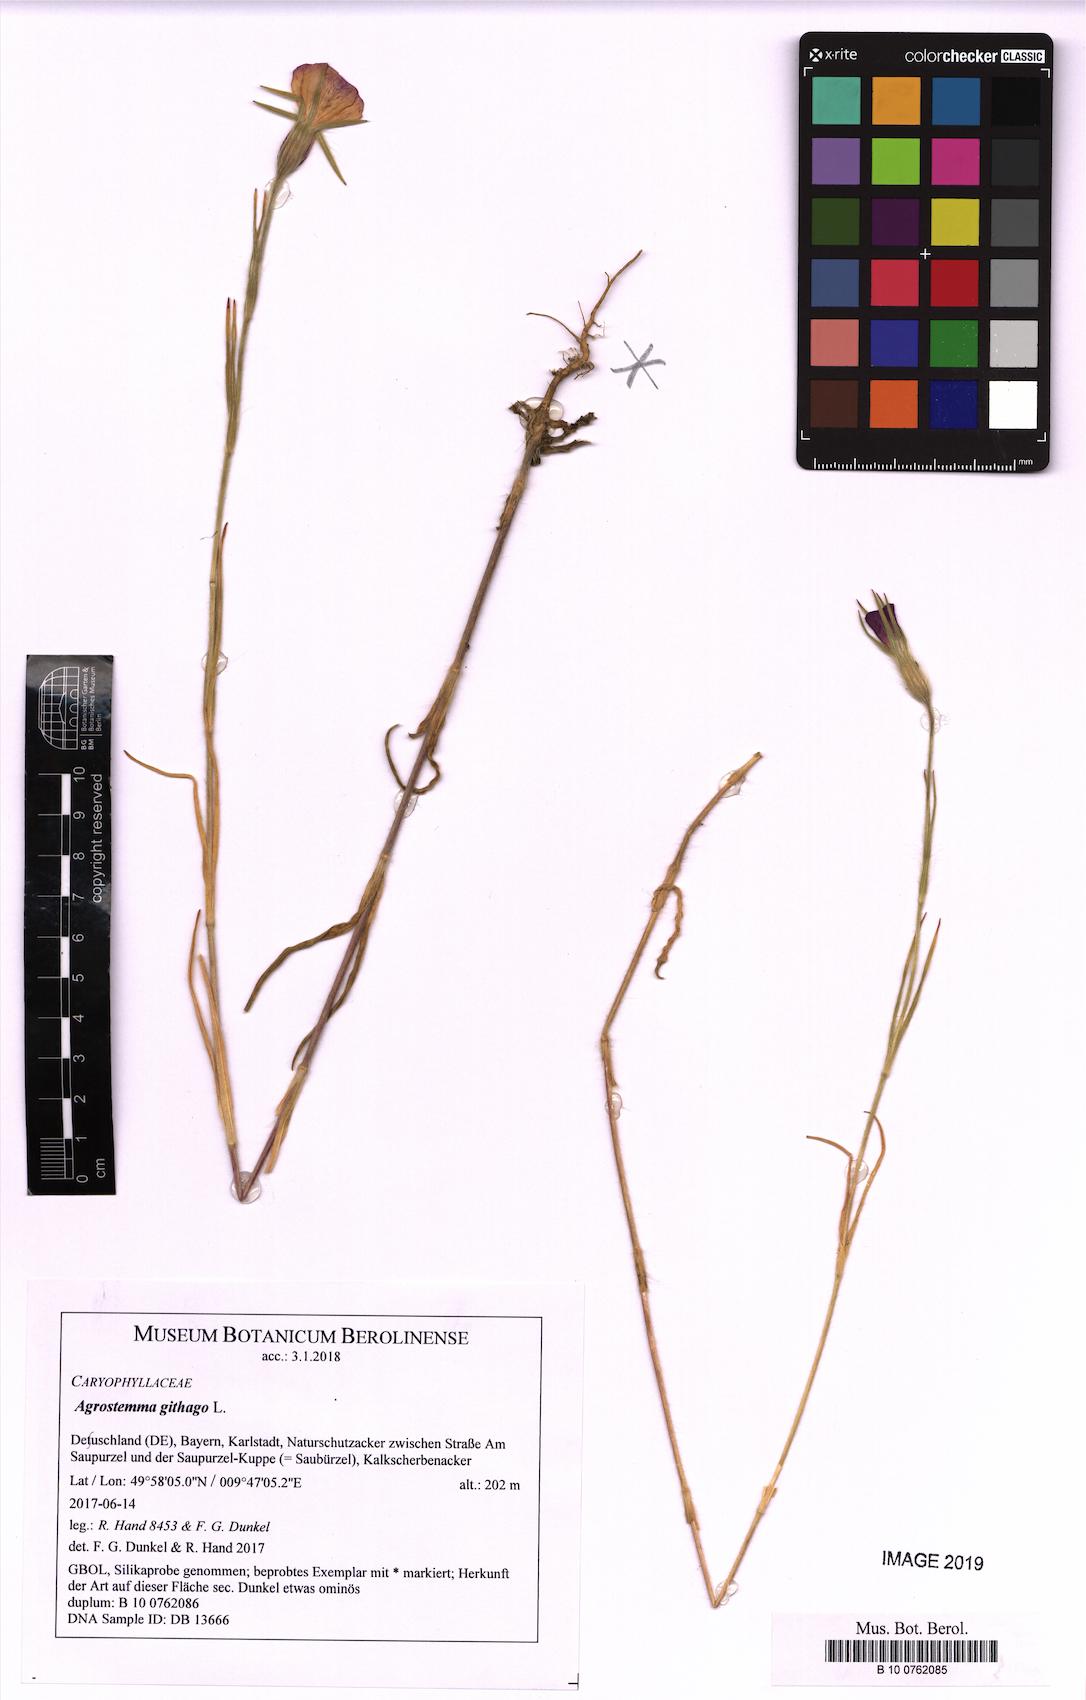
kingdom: Plantae
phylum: Tracheophyta
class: Magnoliopsida
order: Caryophyllales
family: Caryophyllaceae
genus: Agrostemma
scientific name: Agrostemma githago
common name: Common corncockle
